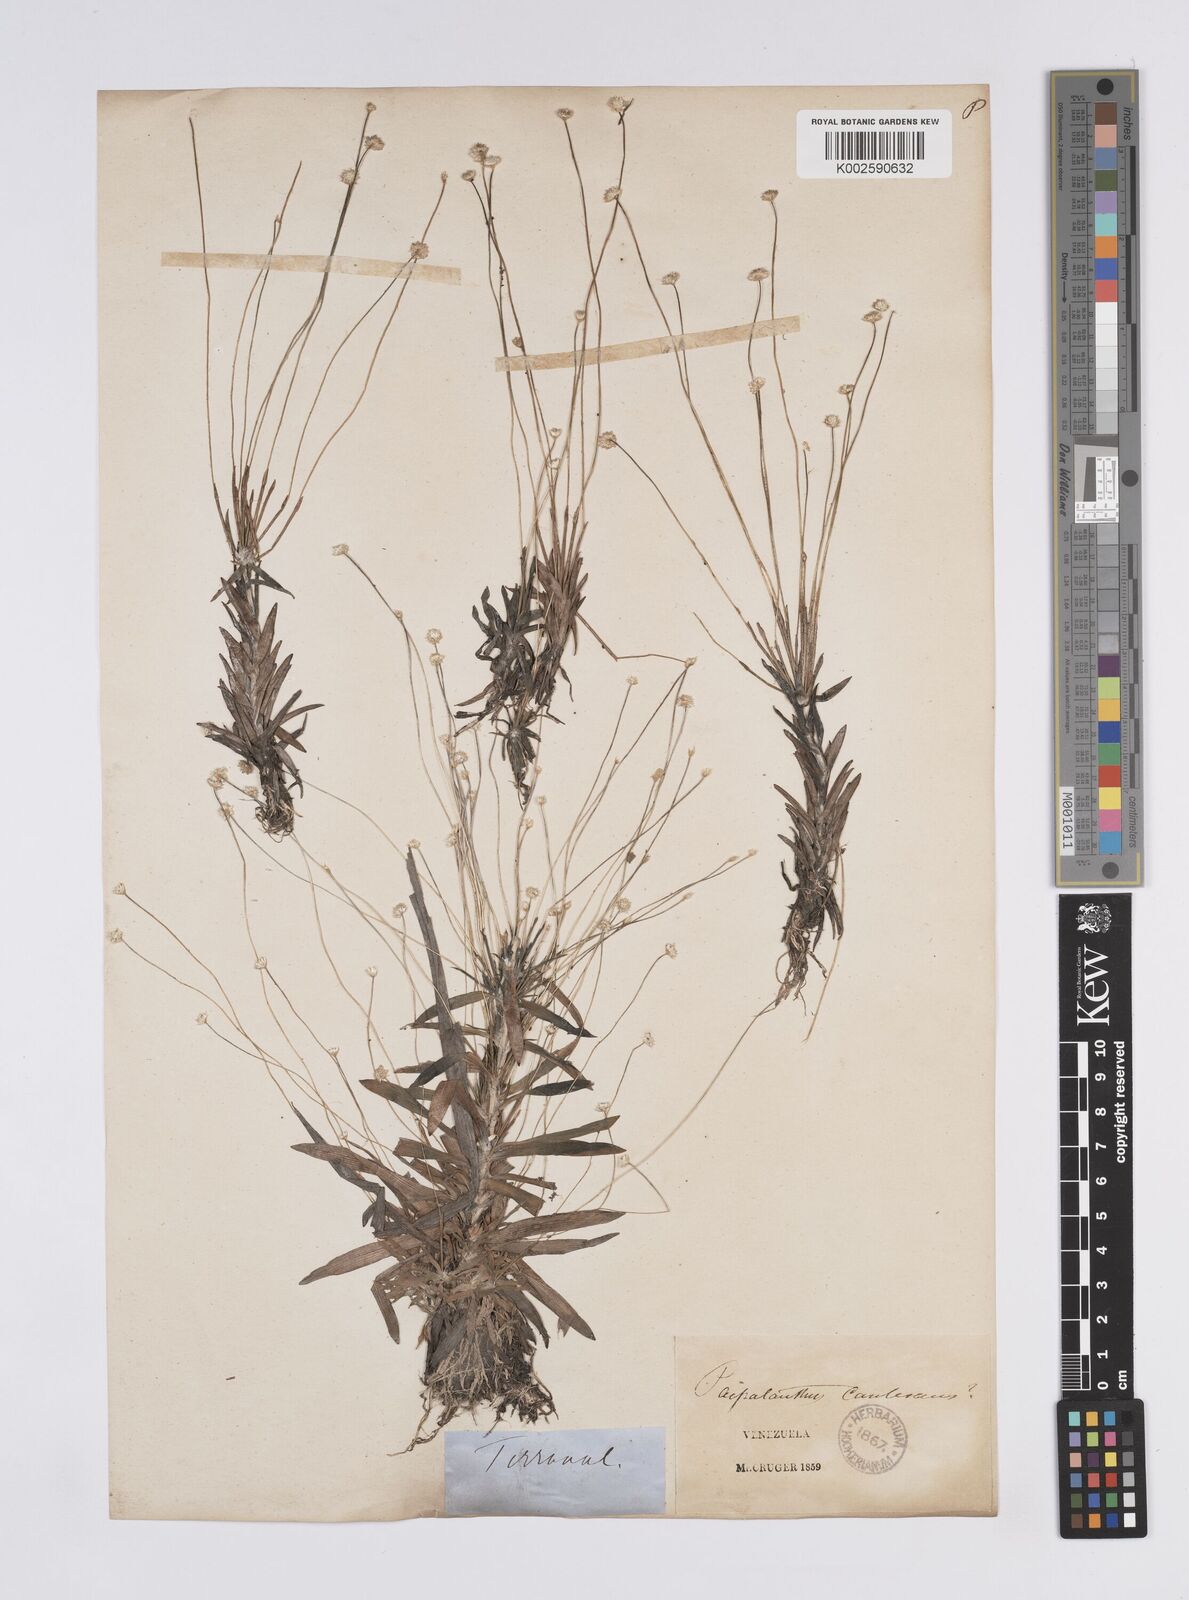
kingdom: Plantae
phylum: Tracheophyta
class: Liliopsida
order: Poales
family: Eriocaulaceae
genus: Syngonanthus
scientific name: Syngonanthus caulescens
